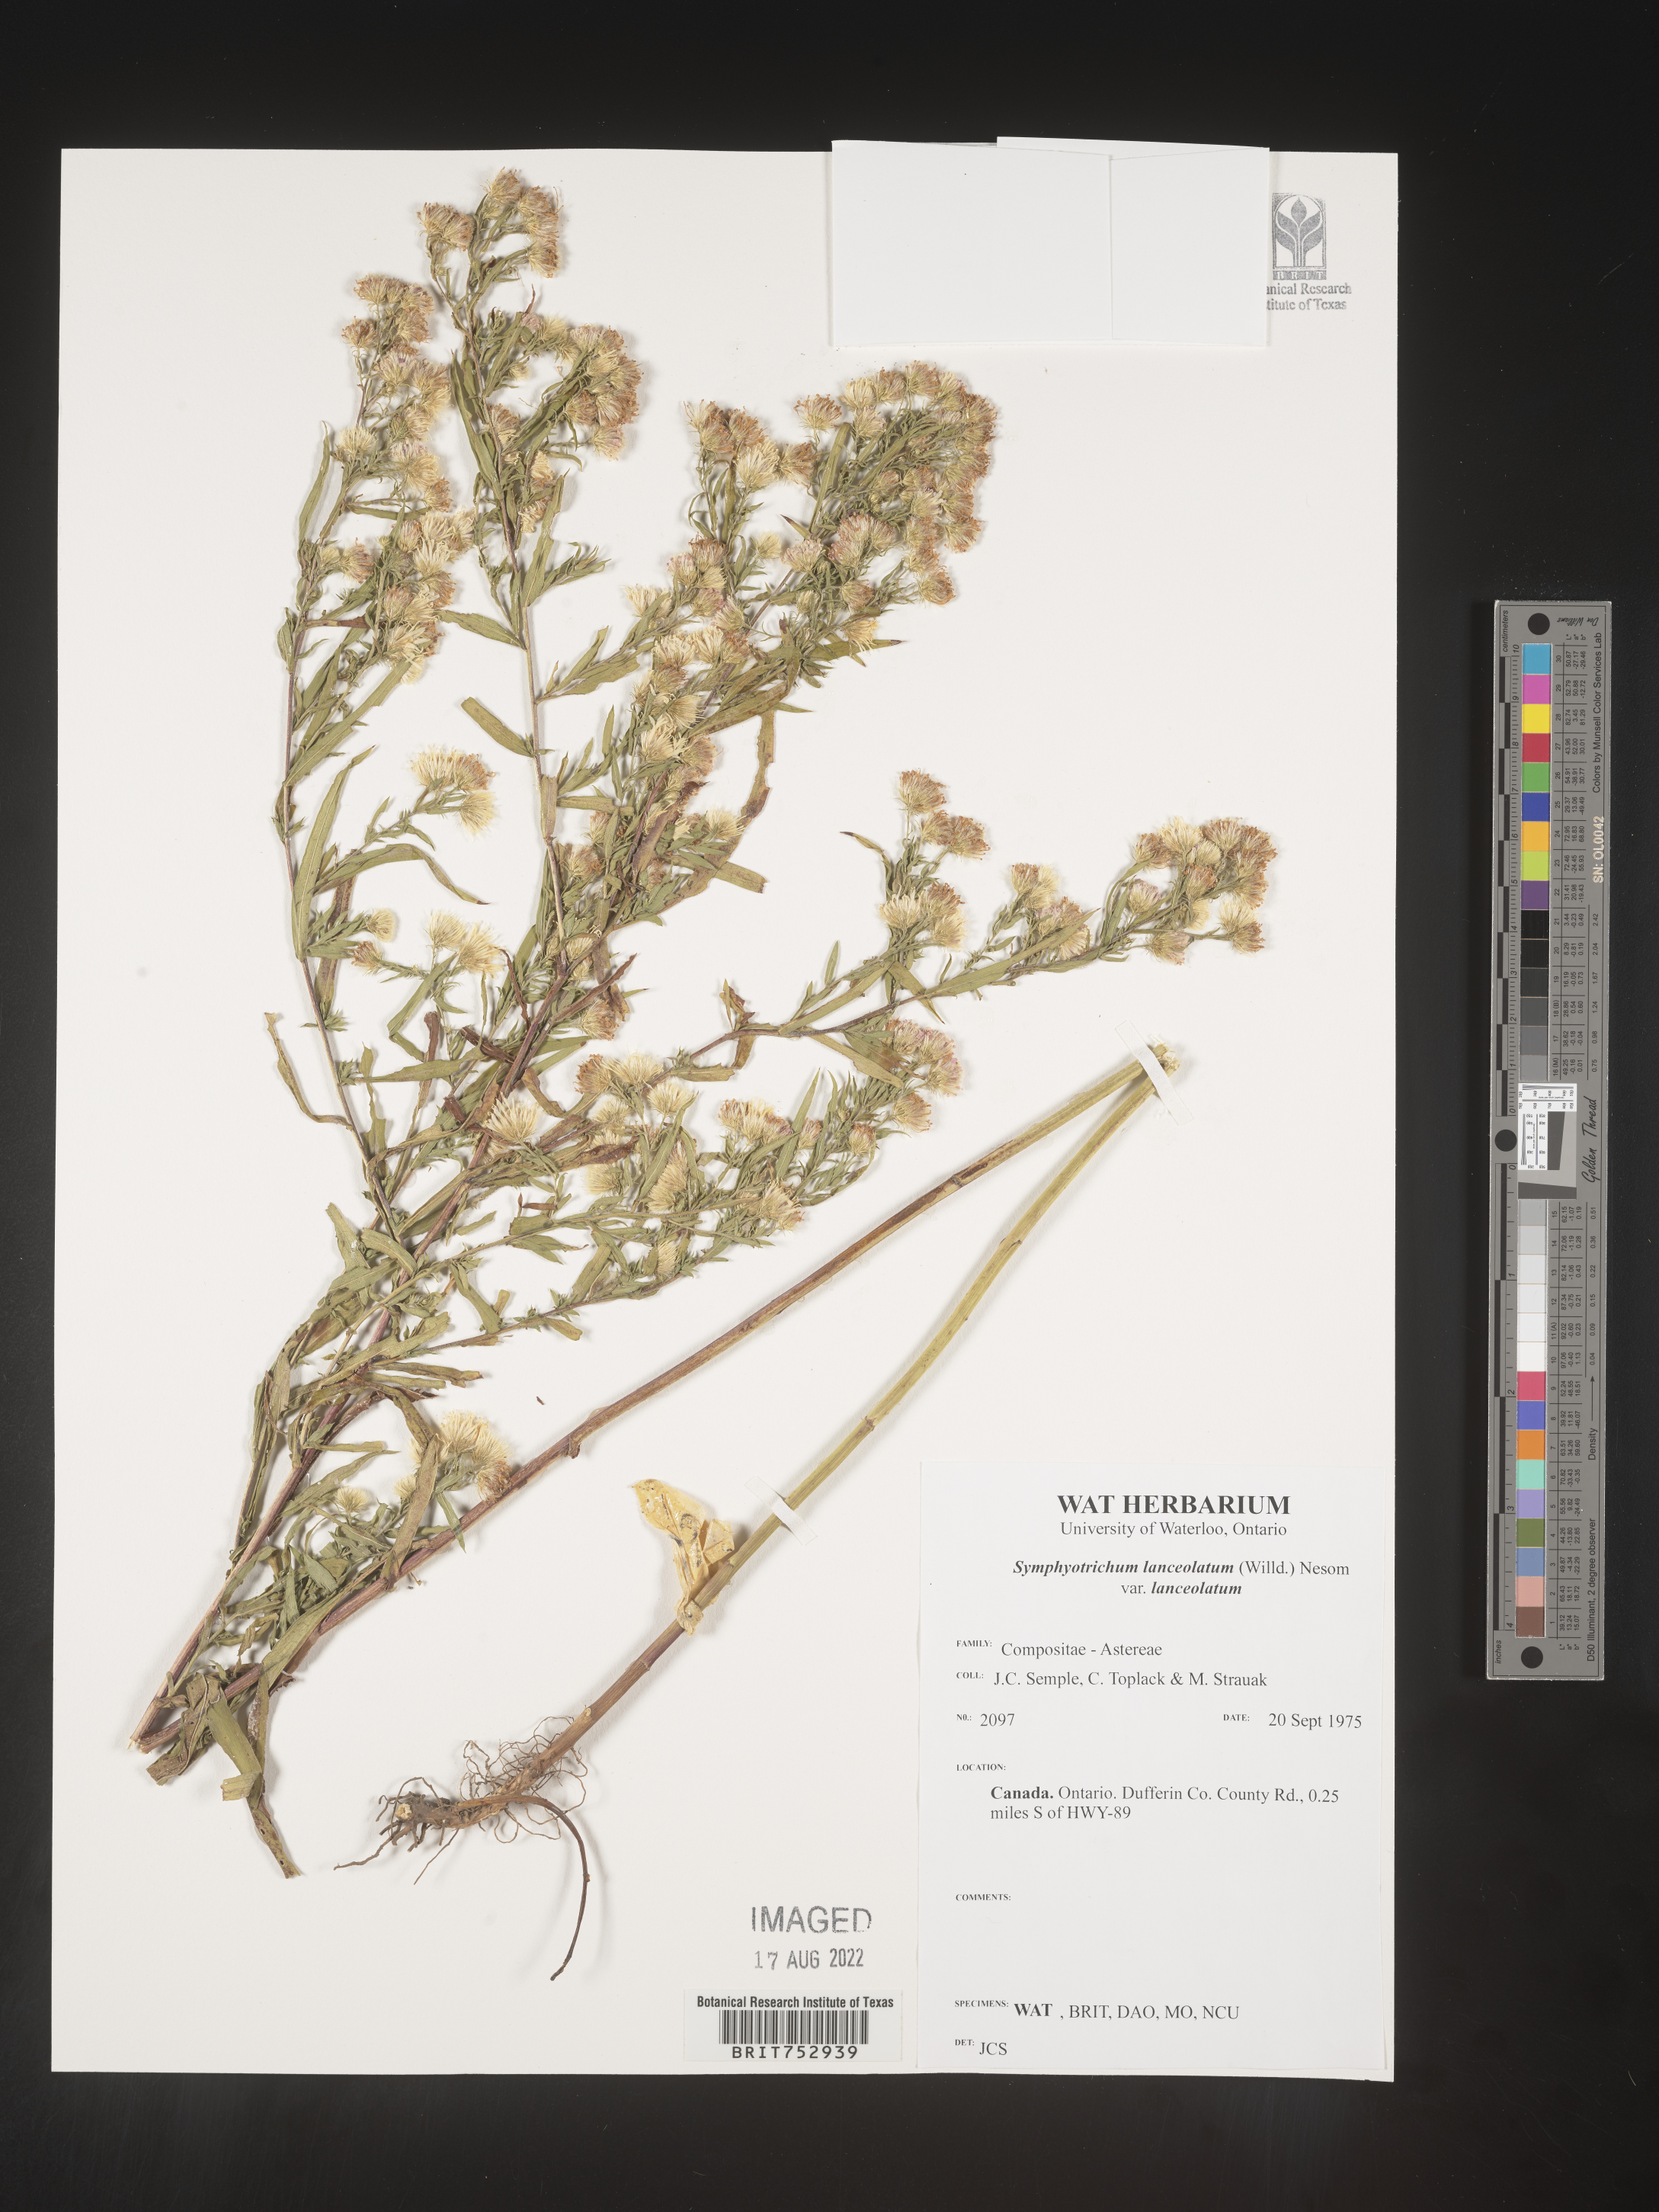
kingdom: Plantae
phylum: Tracheophyta
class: Magnoliopsida
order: Asterales
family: Asteraceae
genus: Symphyotrichum
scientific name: Symphyotrichum lanceolatum
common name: Panicled aster
